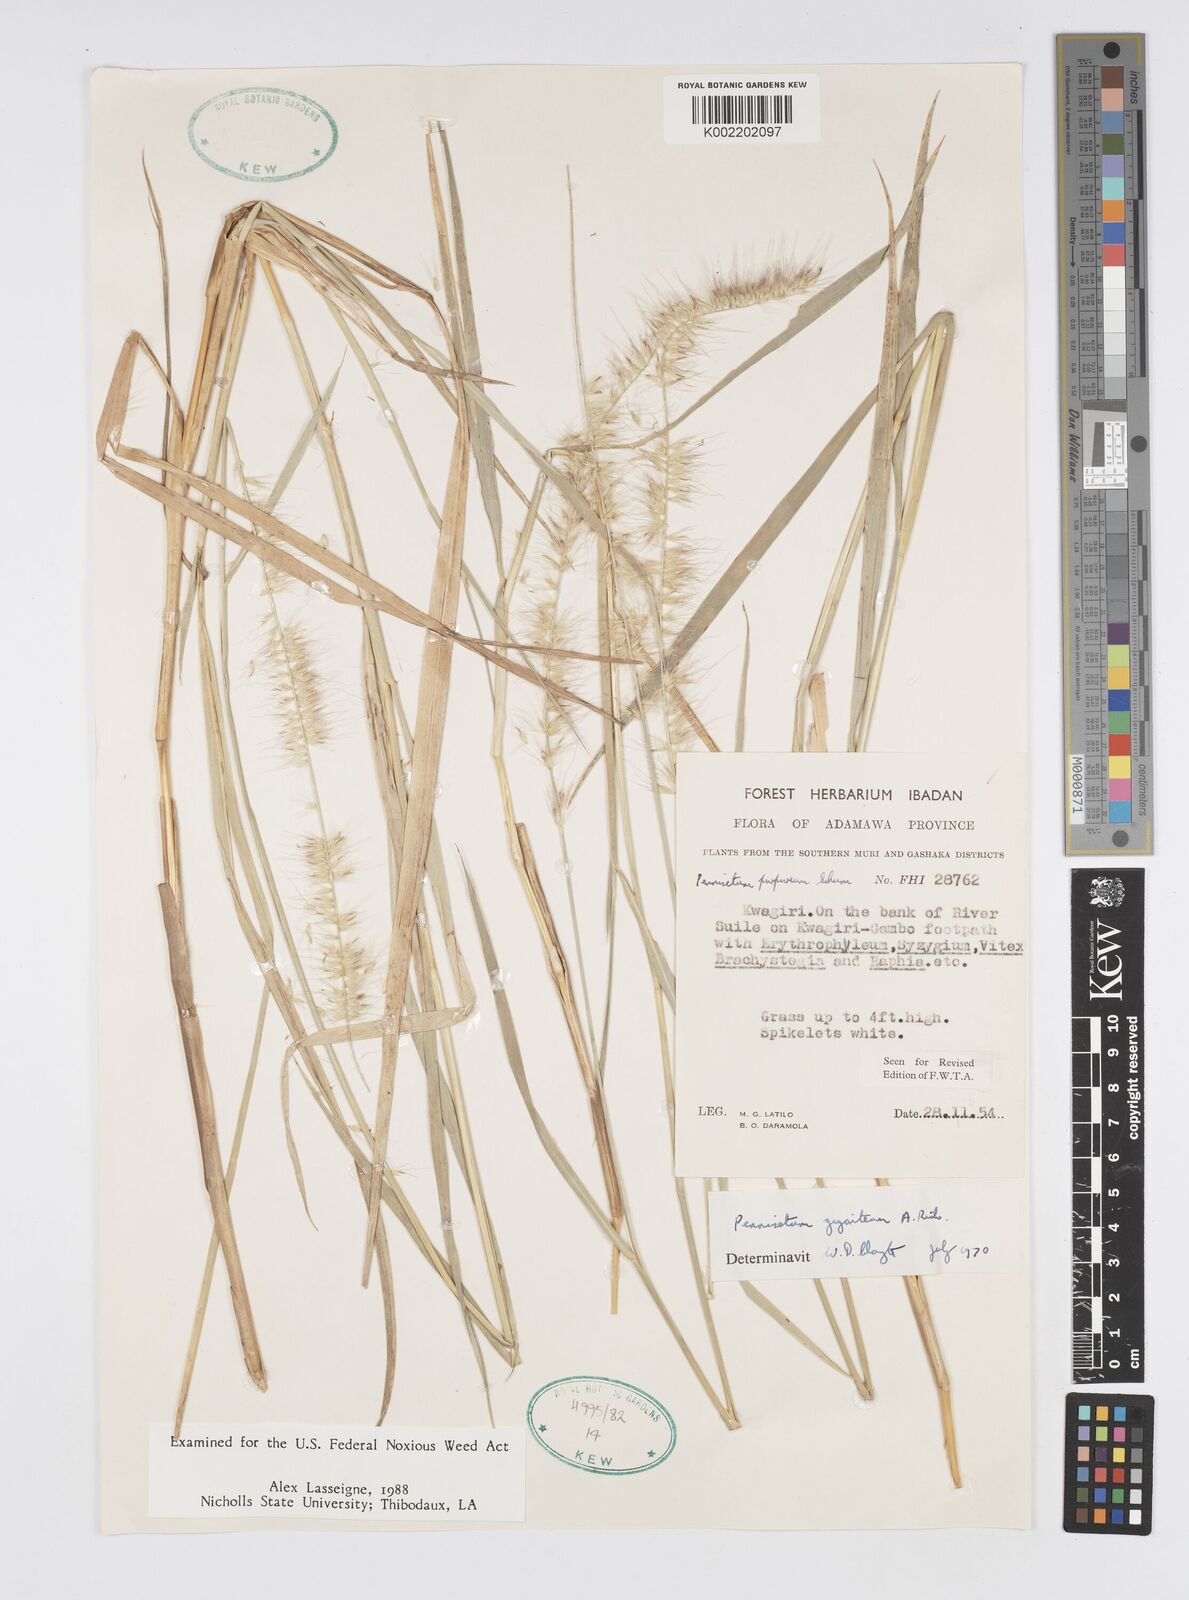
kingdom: Plantae
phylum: Tracheophyta
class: Liliopsida
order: Poales
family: Poaceae
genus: Cenchrus
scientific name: Cenchrus caudatus
